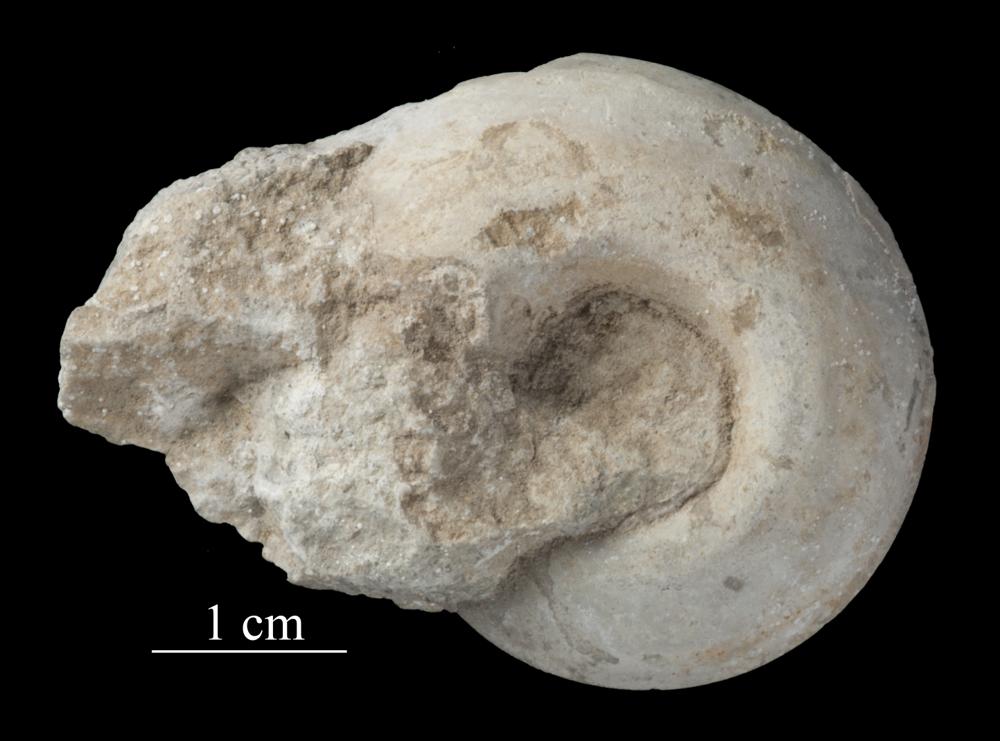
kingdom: Animalia
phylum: Mollusca
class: Gastropoda
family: Lesueurillidae
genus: Pararaphistoma
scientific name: Pararaphistoma Helicites qualteriata
